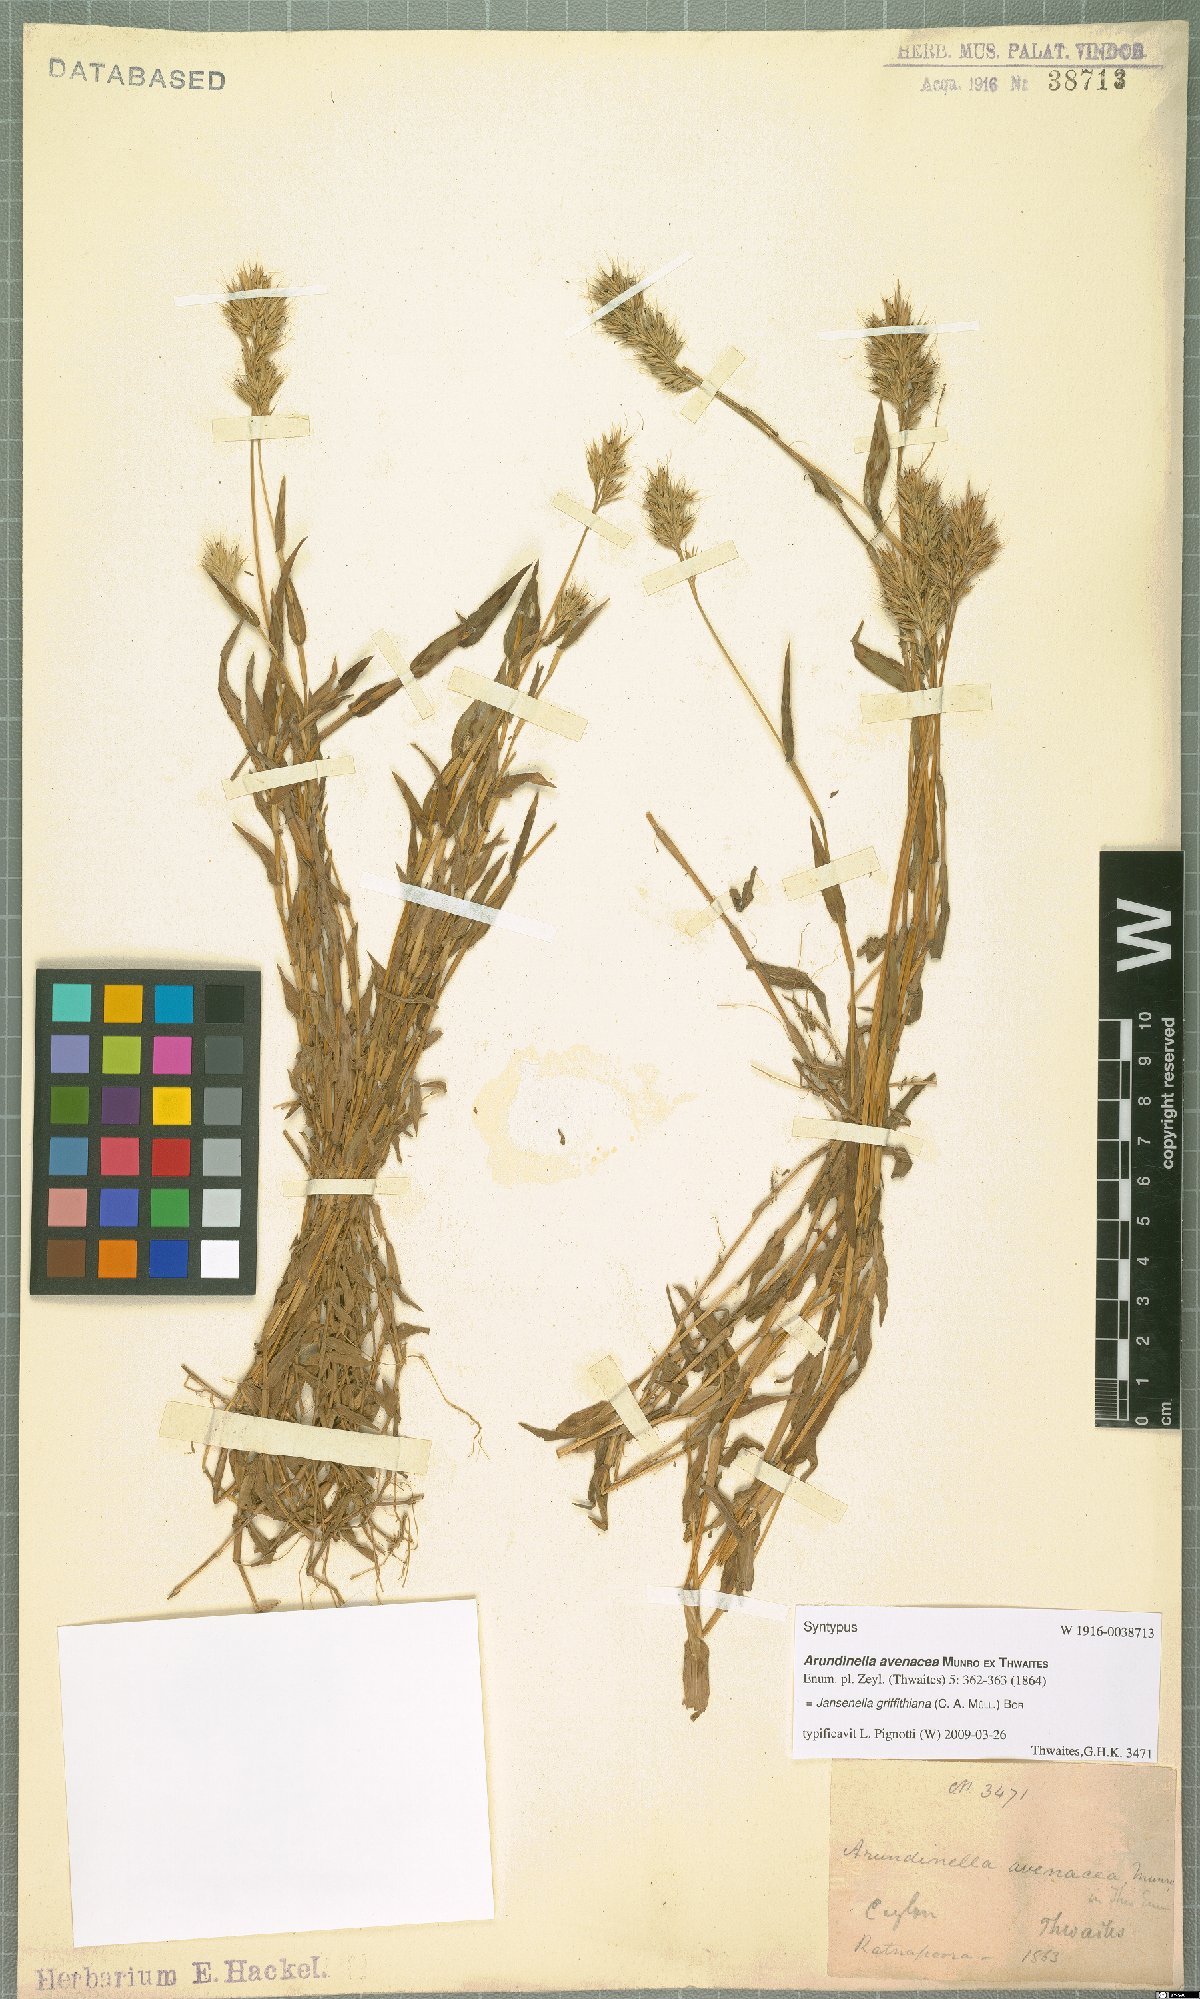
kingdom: Plantae
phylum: Tracheophyta
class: Liliopsida
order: Poales
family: Poaceae
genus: Jansenella
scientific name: Jansenella griffithiana
